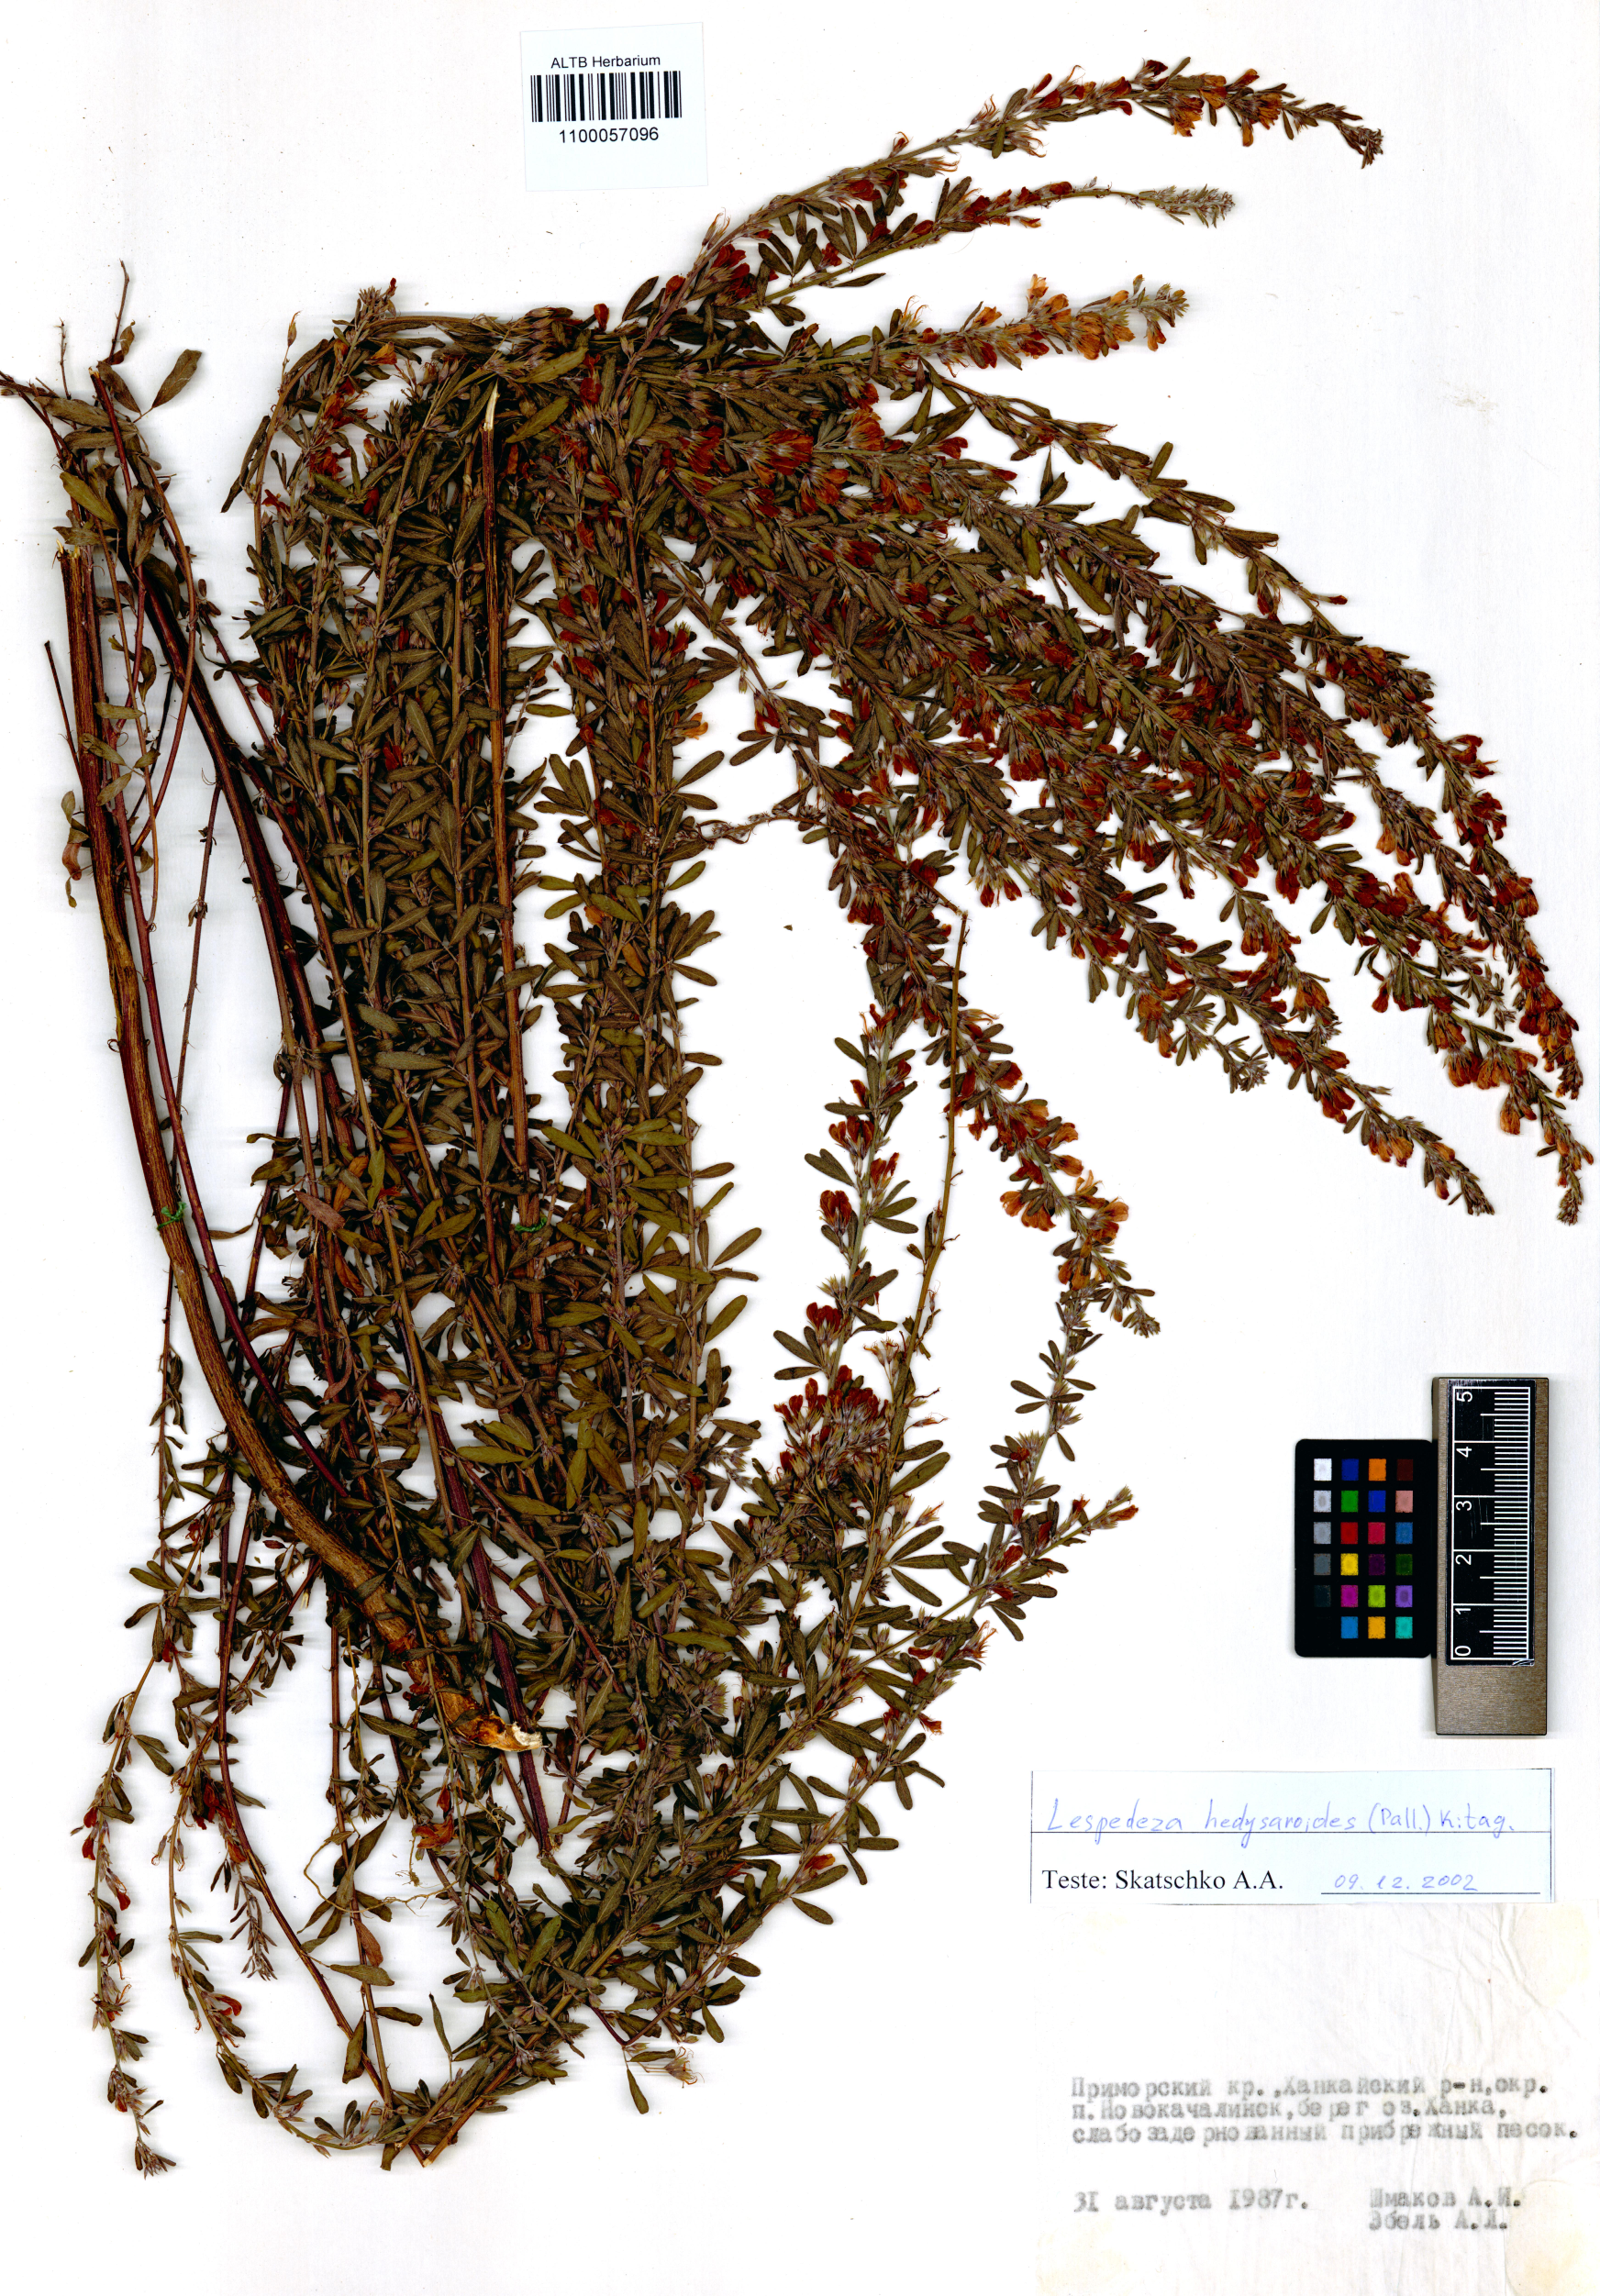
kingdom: Plantae
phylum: Tracheophyta
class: Magnoliopsida
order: Fabales
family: Fabaceae
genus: Lespedeza
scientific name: Lespedeza juncea
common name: Siberian lespedeza
